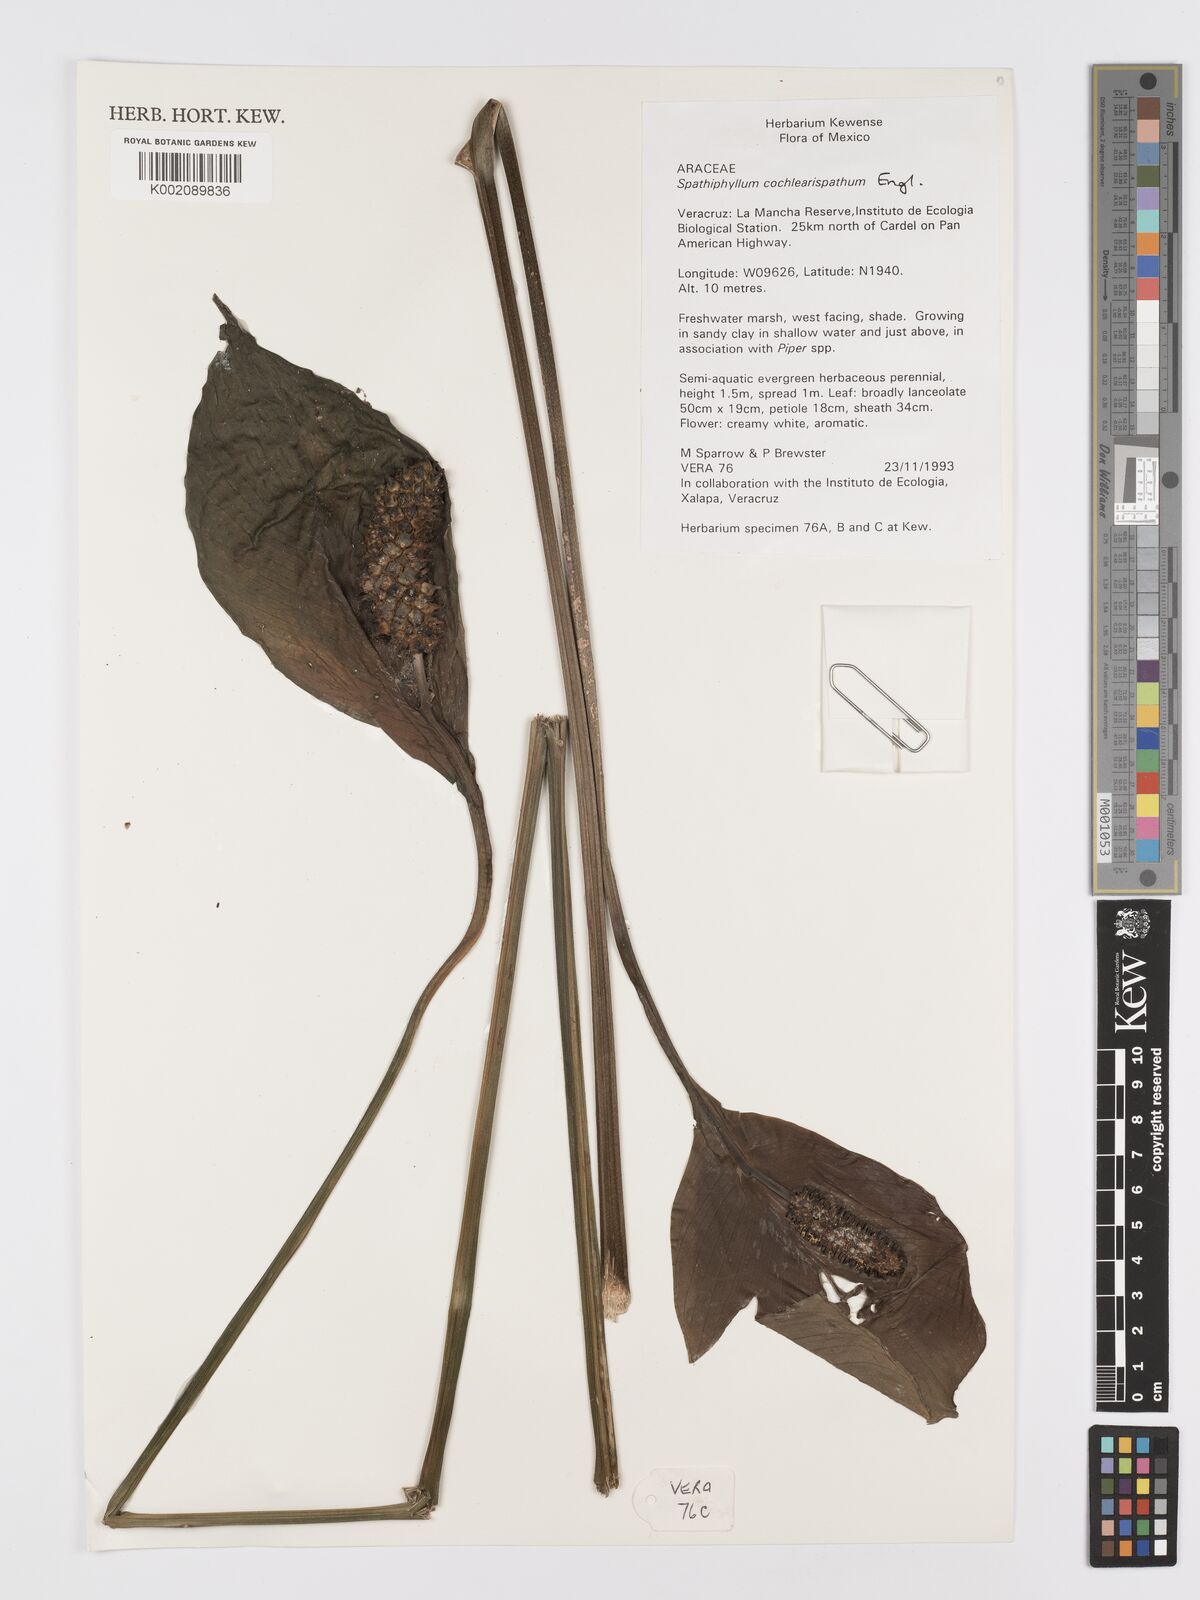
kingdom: Plantae
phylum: Tracheophyta
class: Liliopsida
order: Alismatales
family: Araceae
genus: Spathiphyllum
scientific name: Spathiphyllum cochlearispathum
